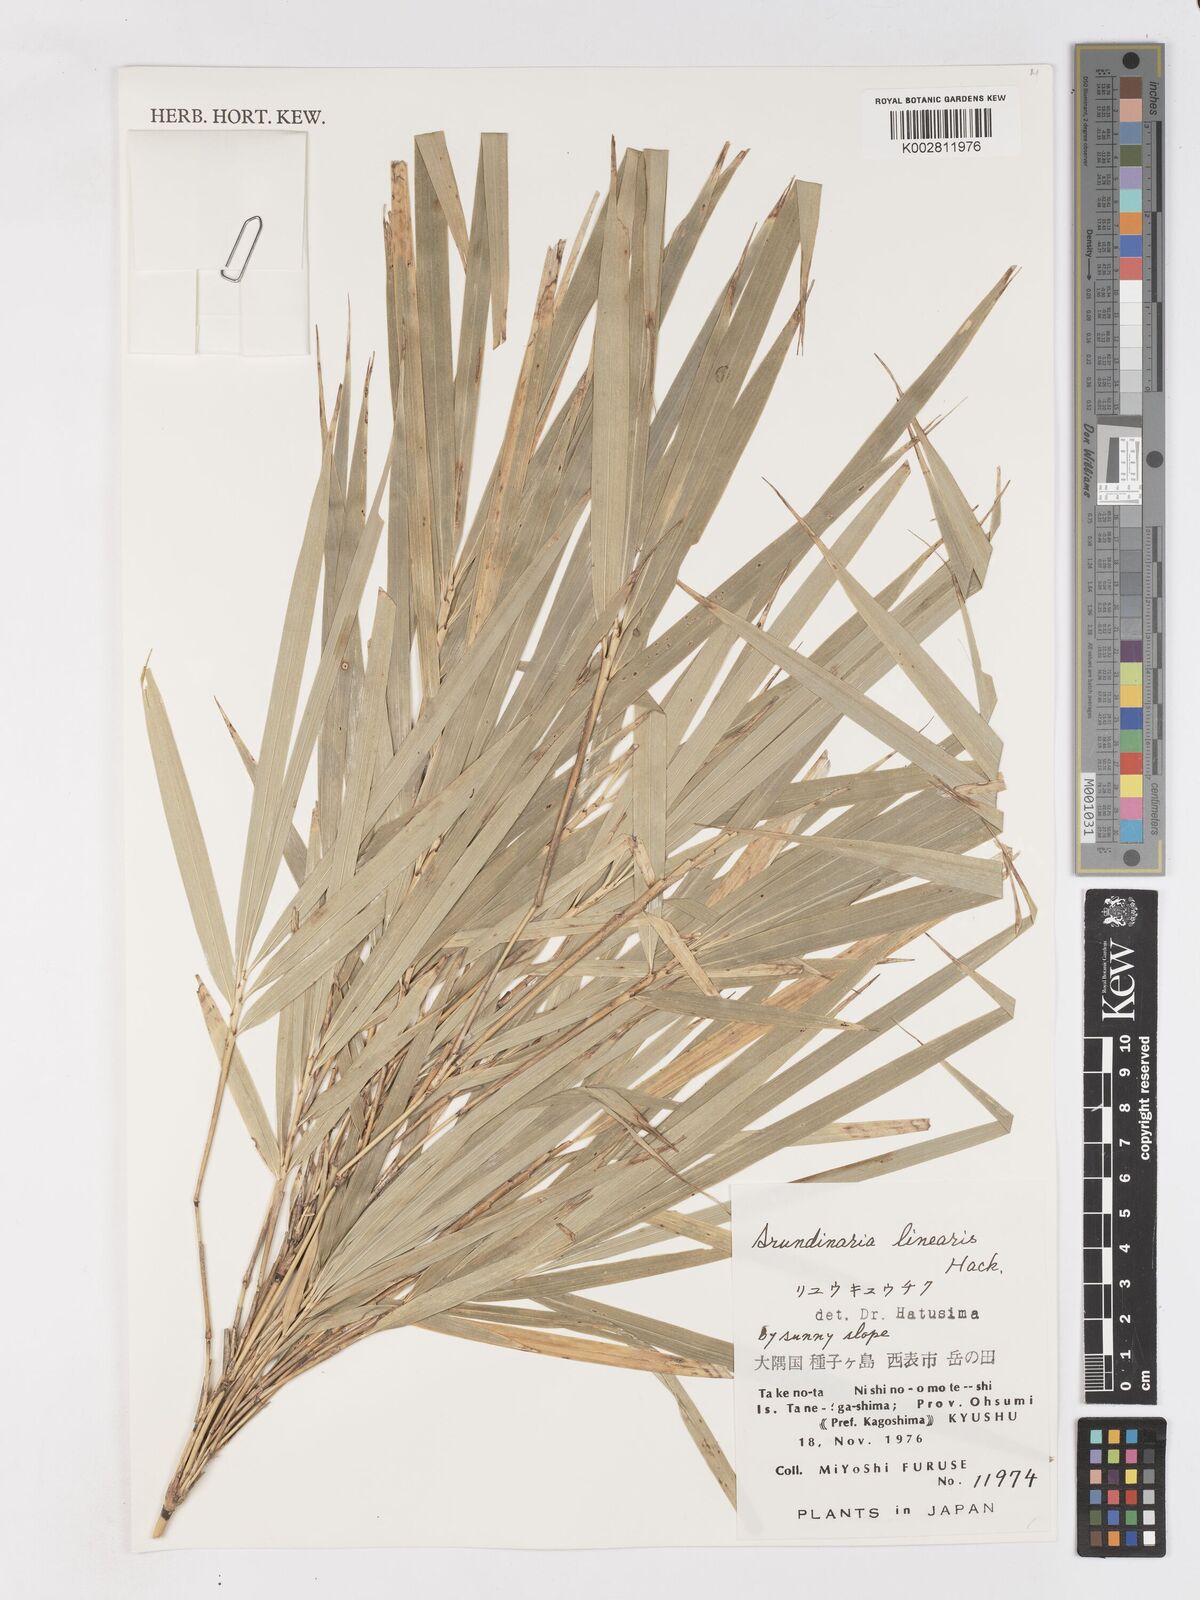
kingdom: Plantae
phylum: Tracheophyta
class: Liliopsida
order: Poales
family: Poaceae
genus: Pleioblastus
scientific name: Pleioblastus linearis
